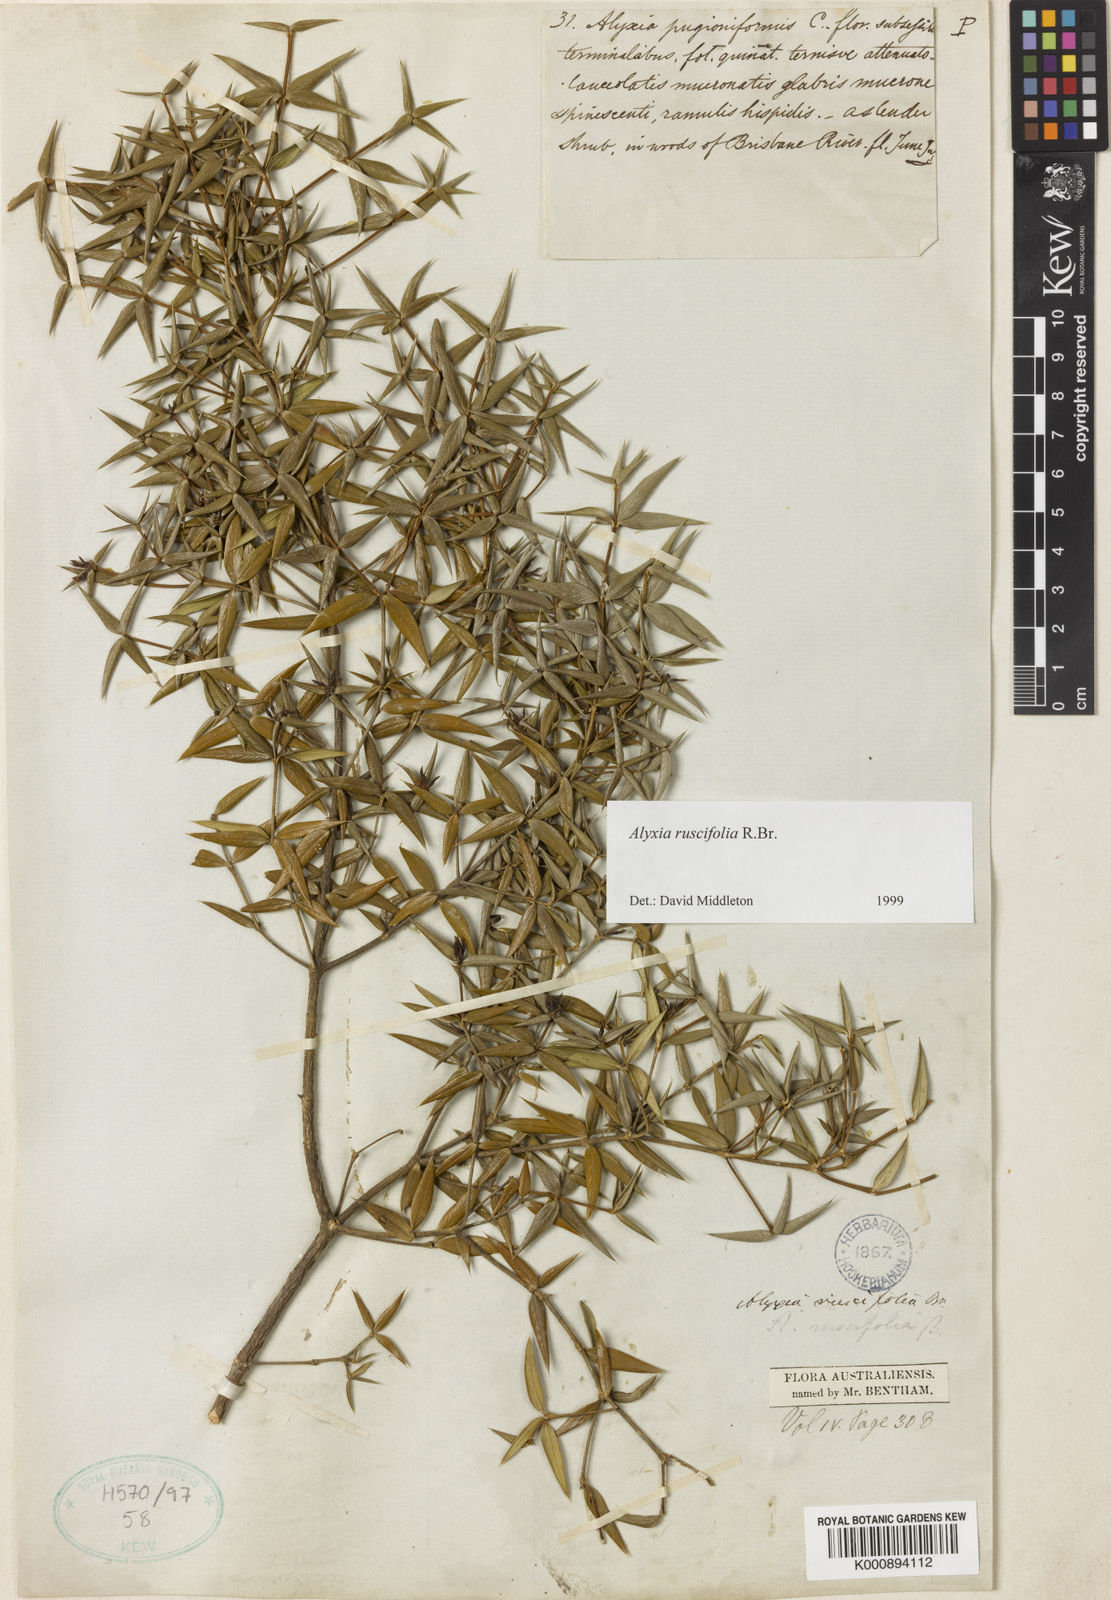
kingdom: Plantae
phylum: Tracheophyta
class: Magnoliopsida
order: Gentianales
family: Apocynaceae
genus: Alyxia
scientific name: Alyxia ruscifolia
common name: Chainfruit
